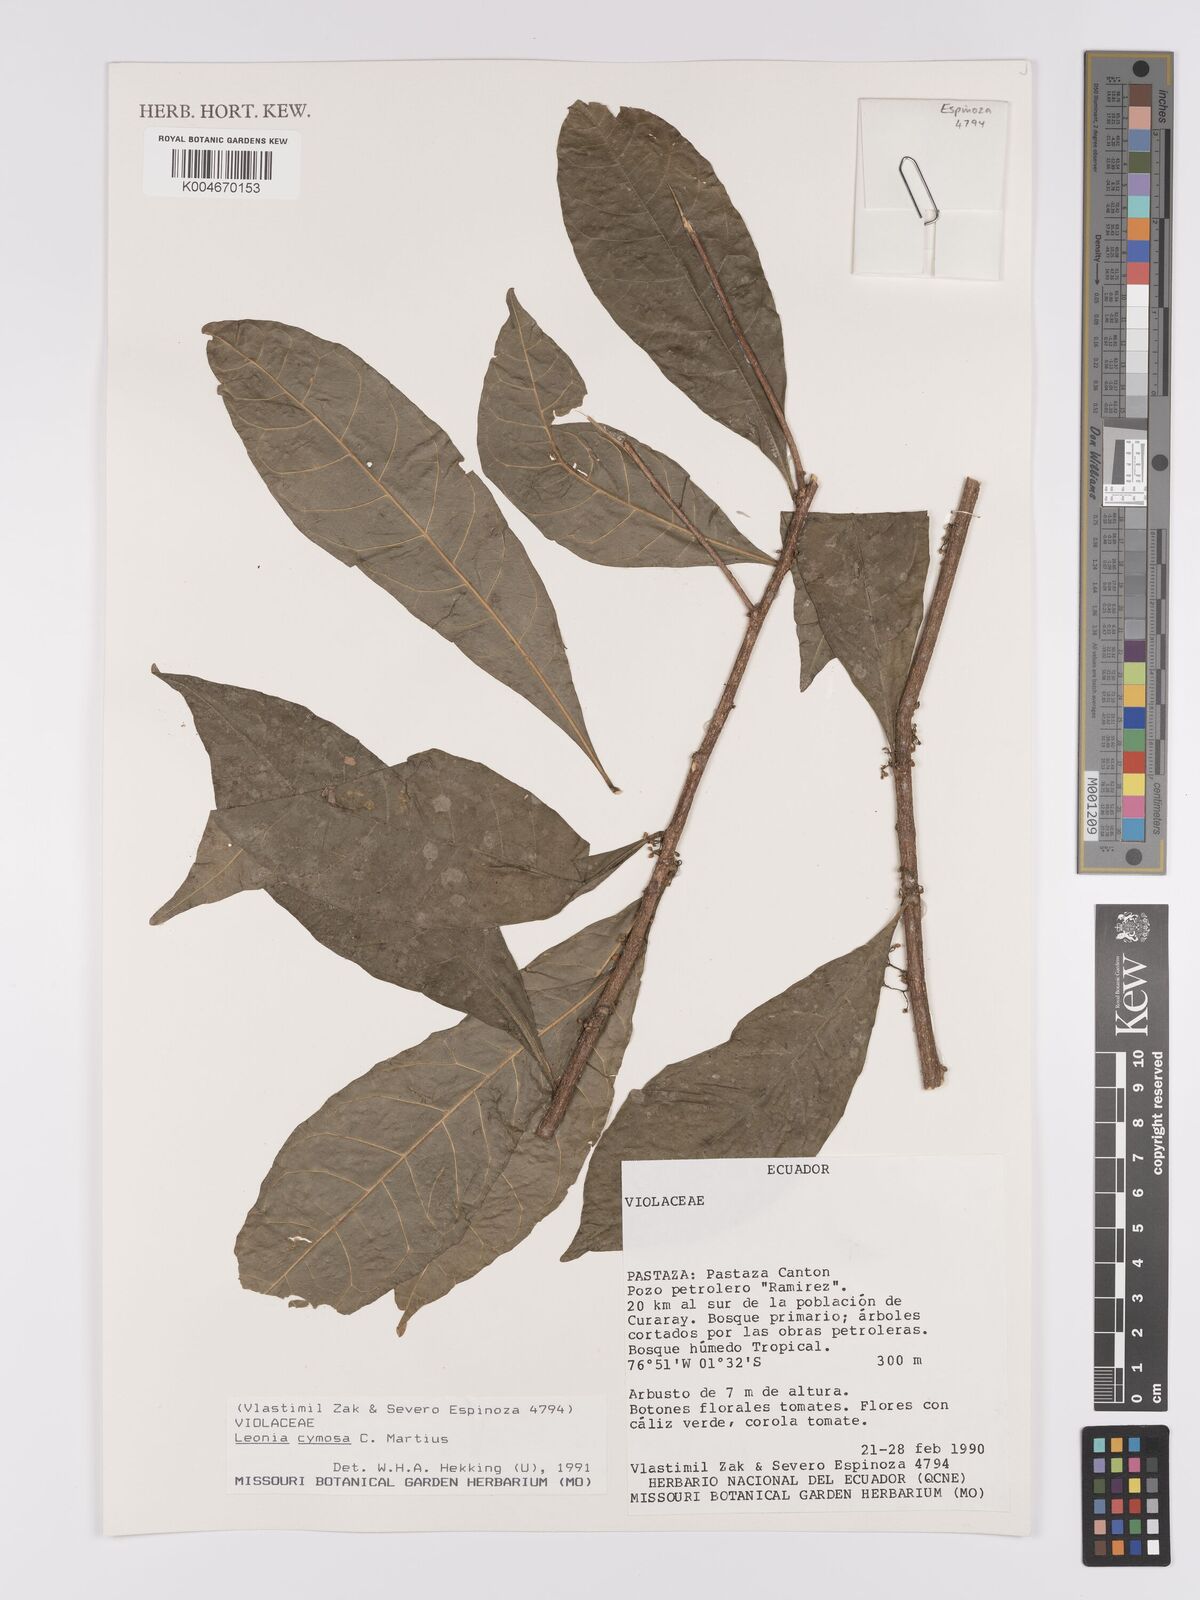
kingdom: Plantae
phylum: Tracheophyta
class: Magnoliopsida
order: Malpighiales
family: Violaceae
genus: Leonia
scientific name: Leonia cymosa
